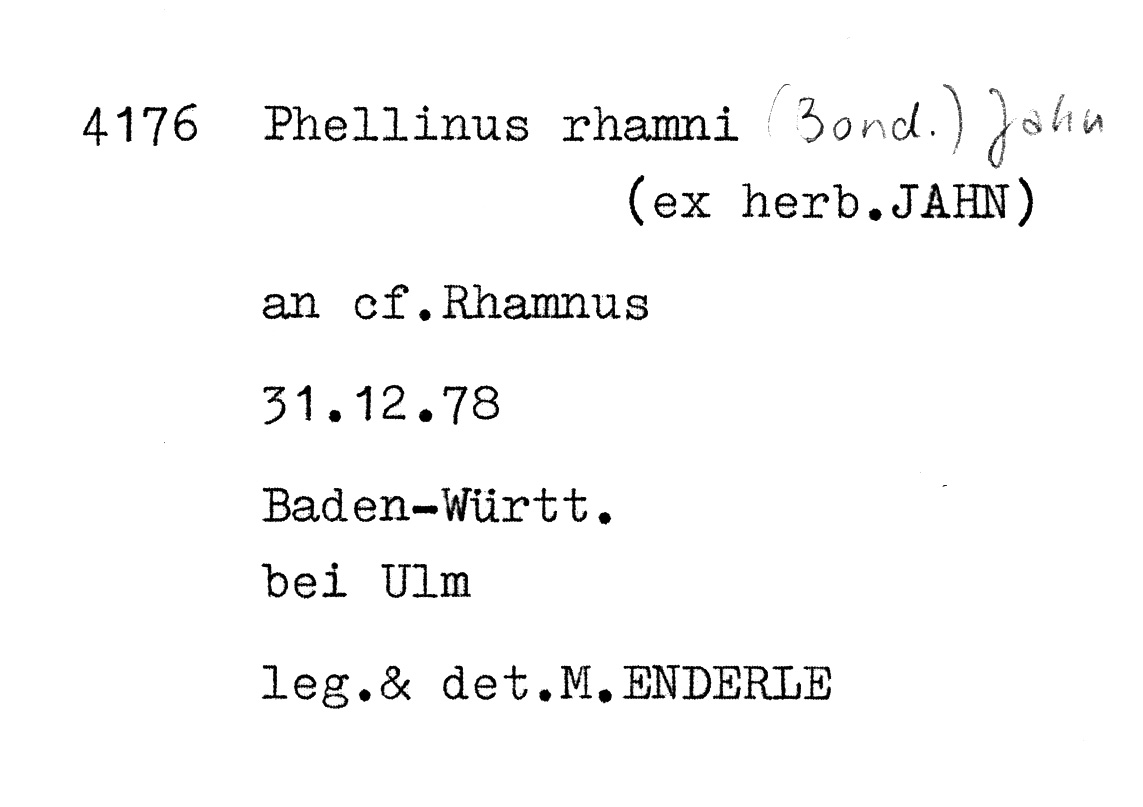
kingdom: Plantae
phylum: Tracheophyta
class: Magnoliopsida
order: Rosales
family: Rhamnaceae
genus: Rhamnus
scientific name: Rhamnus
